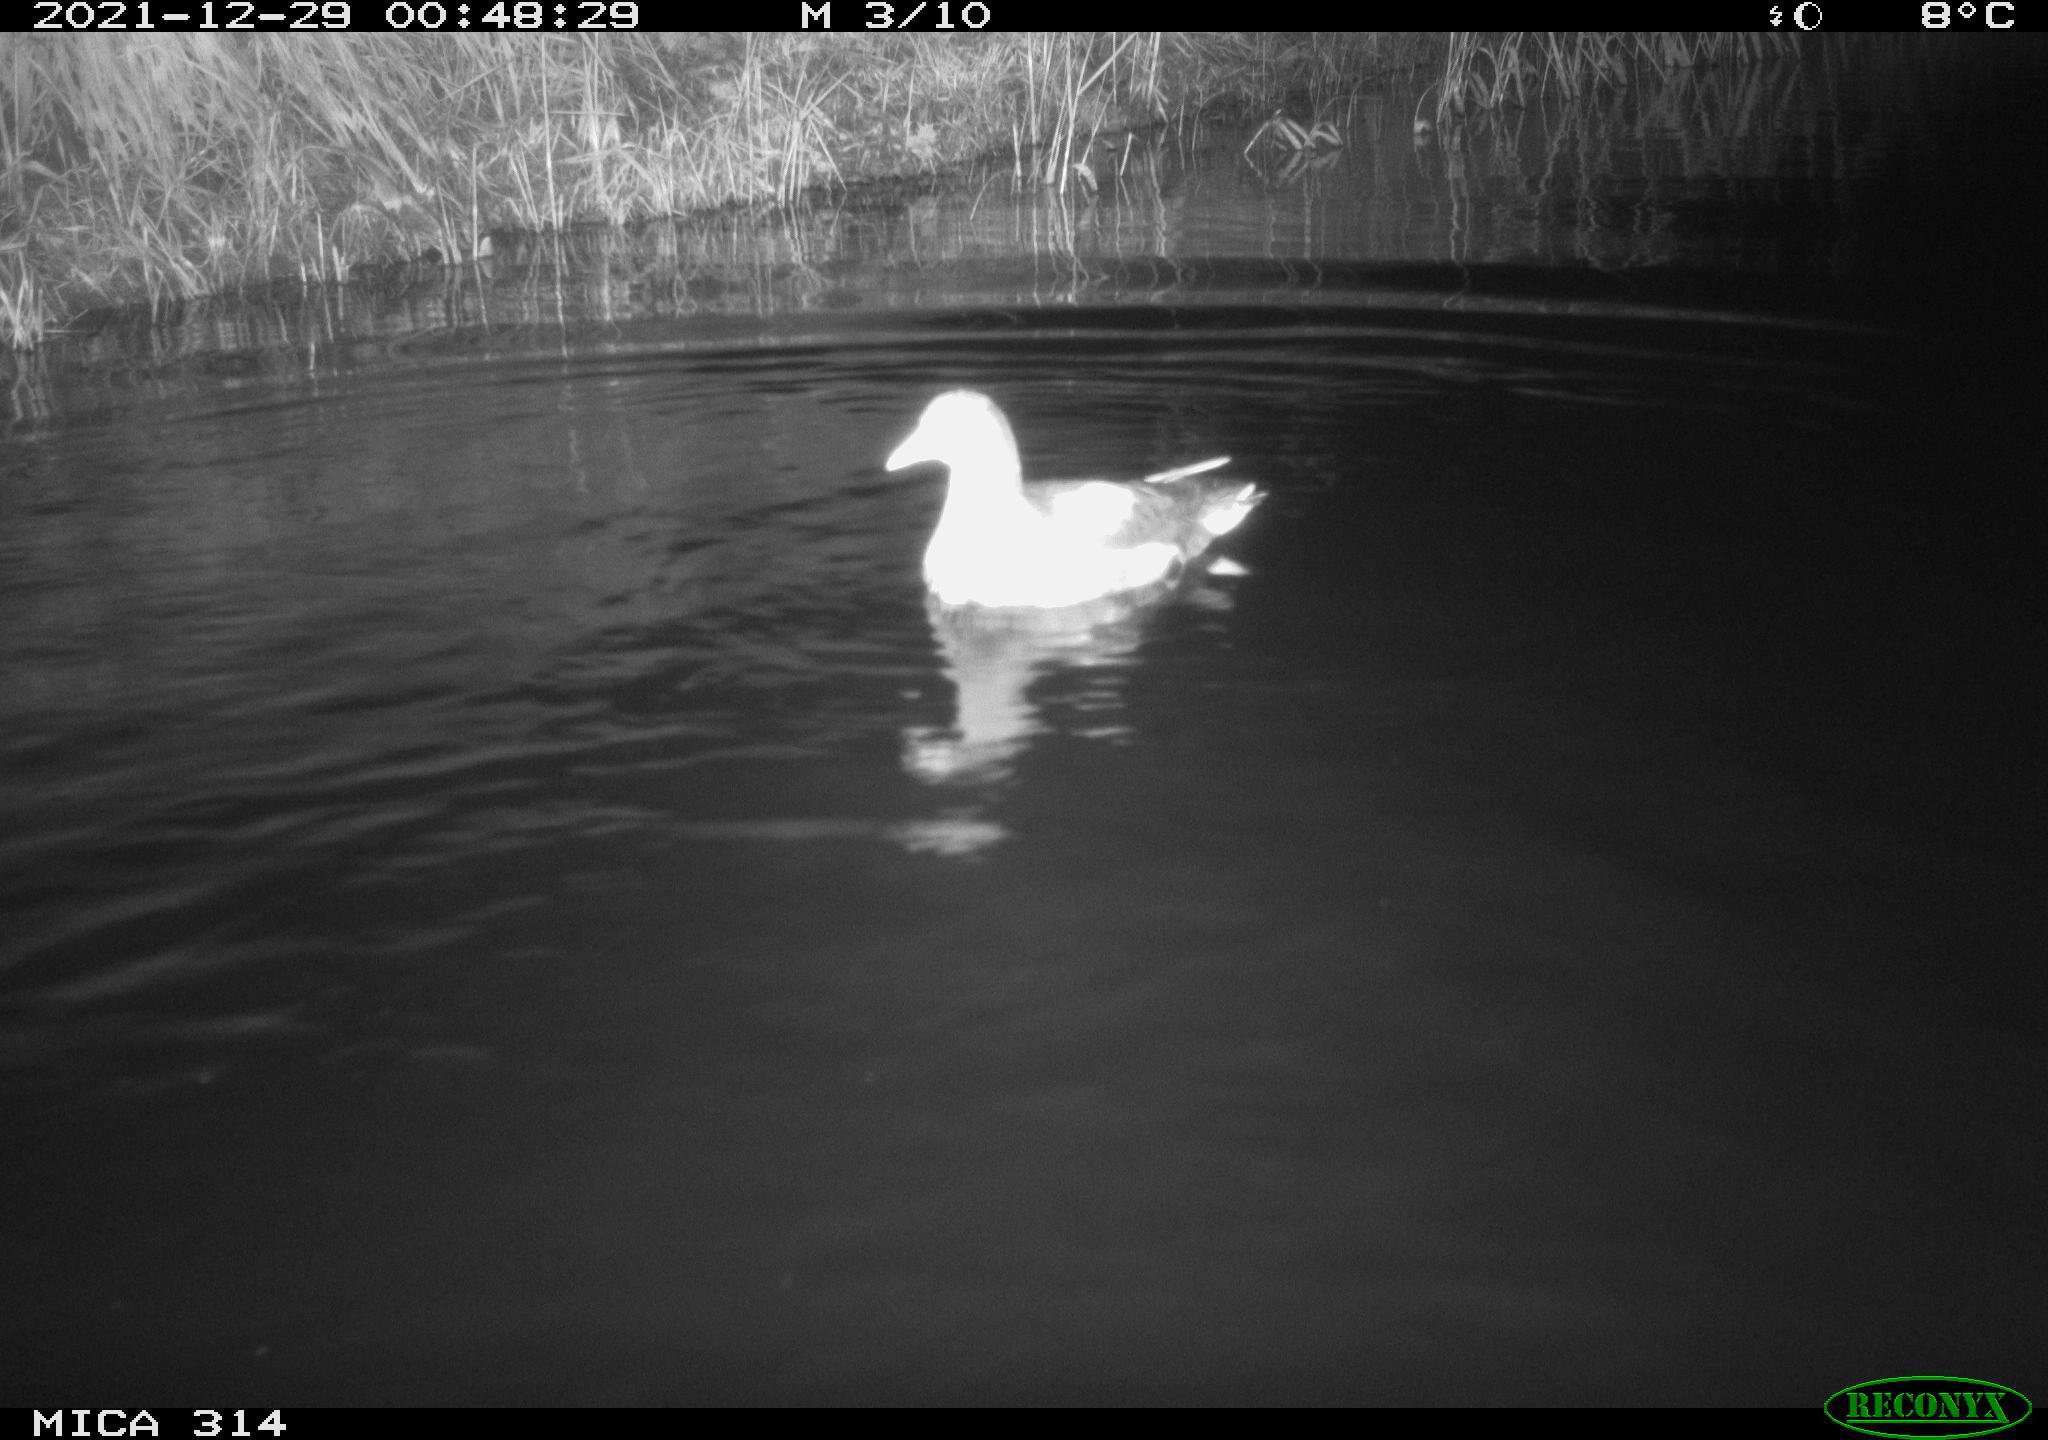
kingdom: Animalia
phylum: Chordata
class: Aves
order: Gruiformes
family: Rallidae
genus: Gallinula
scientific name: Gallinula chloropus
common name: Common moorhen
